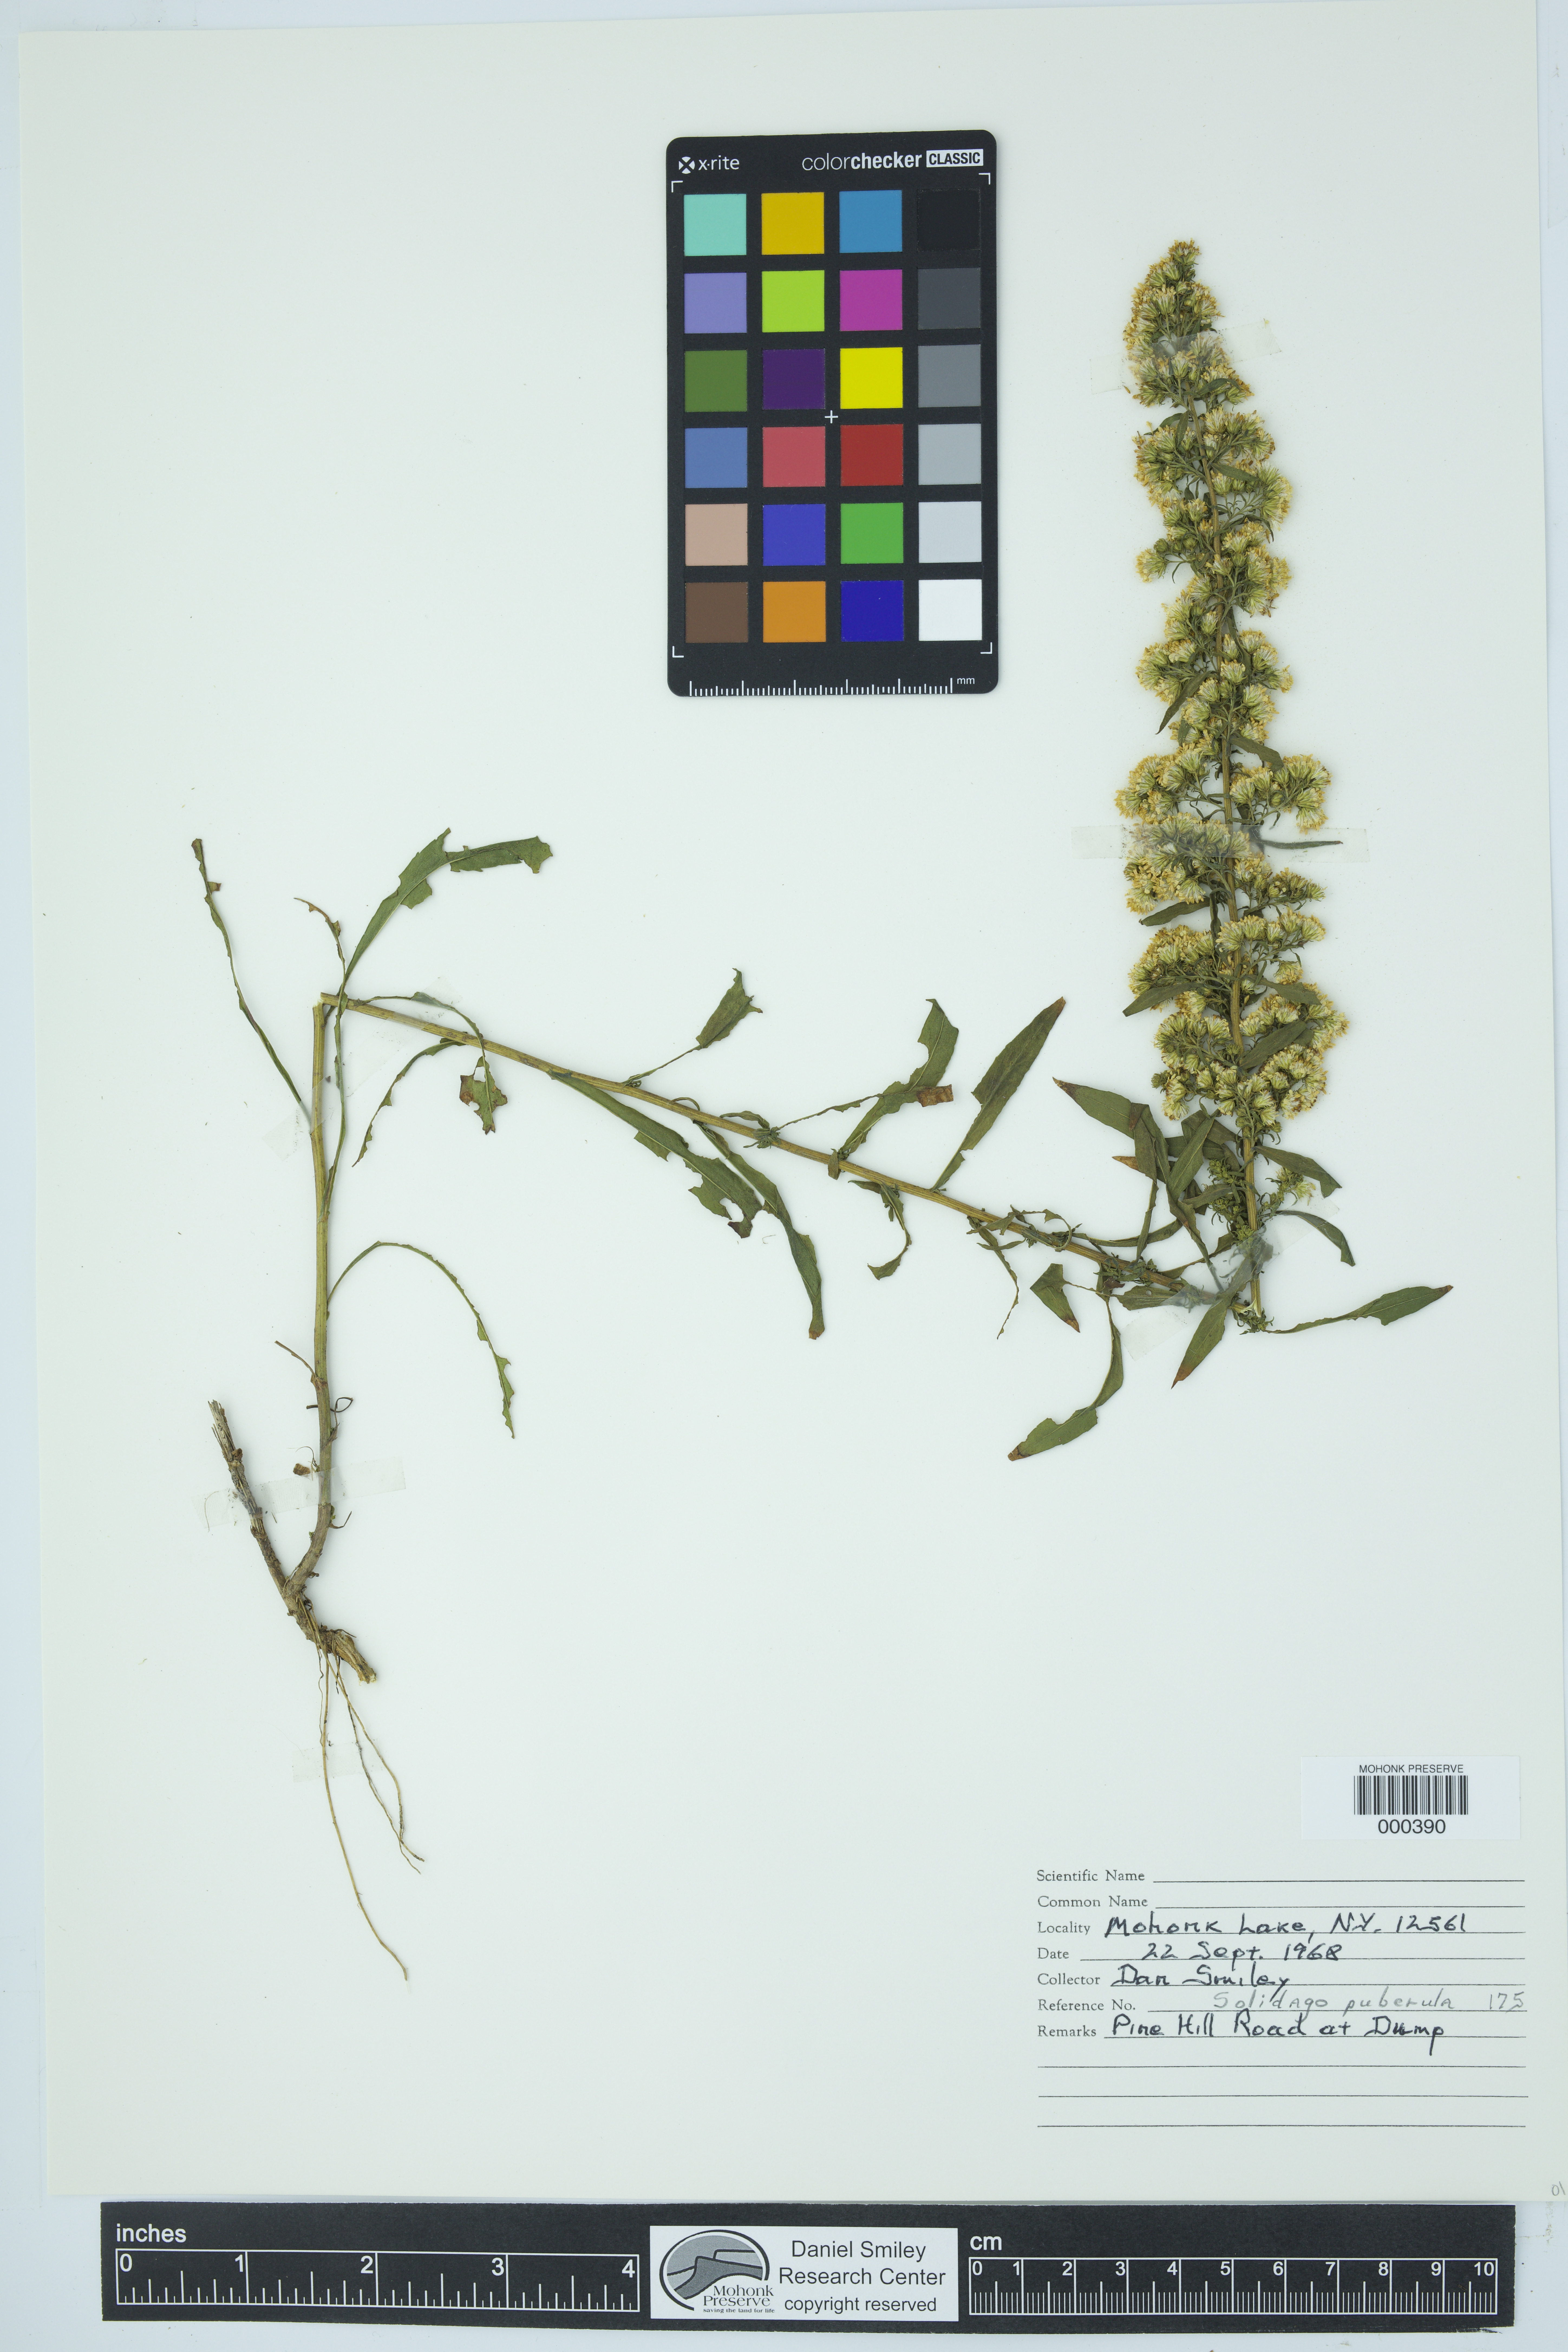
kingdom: Plantae
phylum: Tracheophyta
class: Magnoliopsida
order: Asterales
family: Asteraceae
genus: Solidago
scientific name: Solidago puberula
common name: Downy goldenrod
